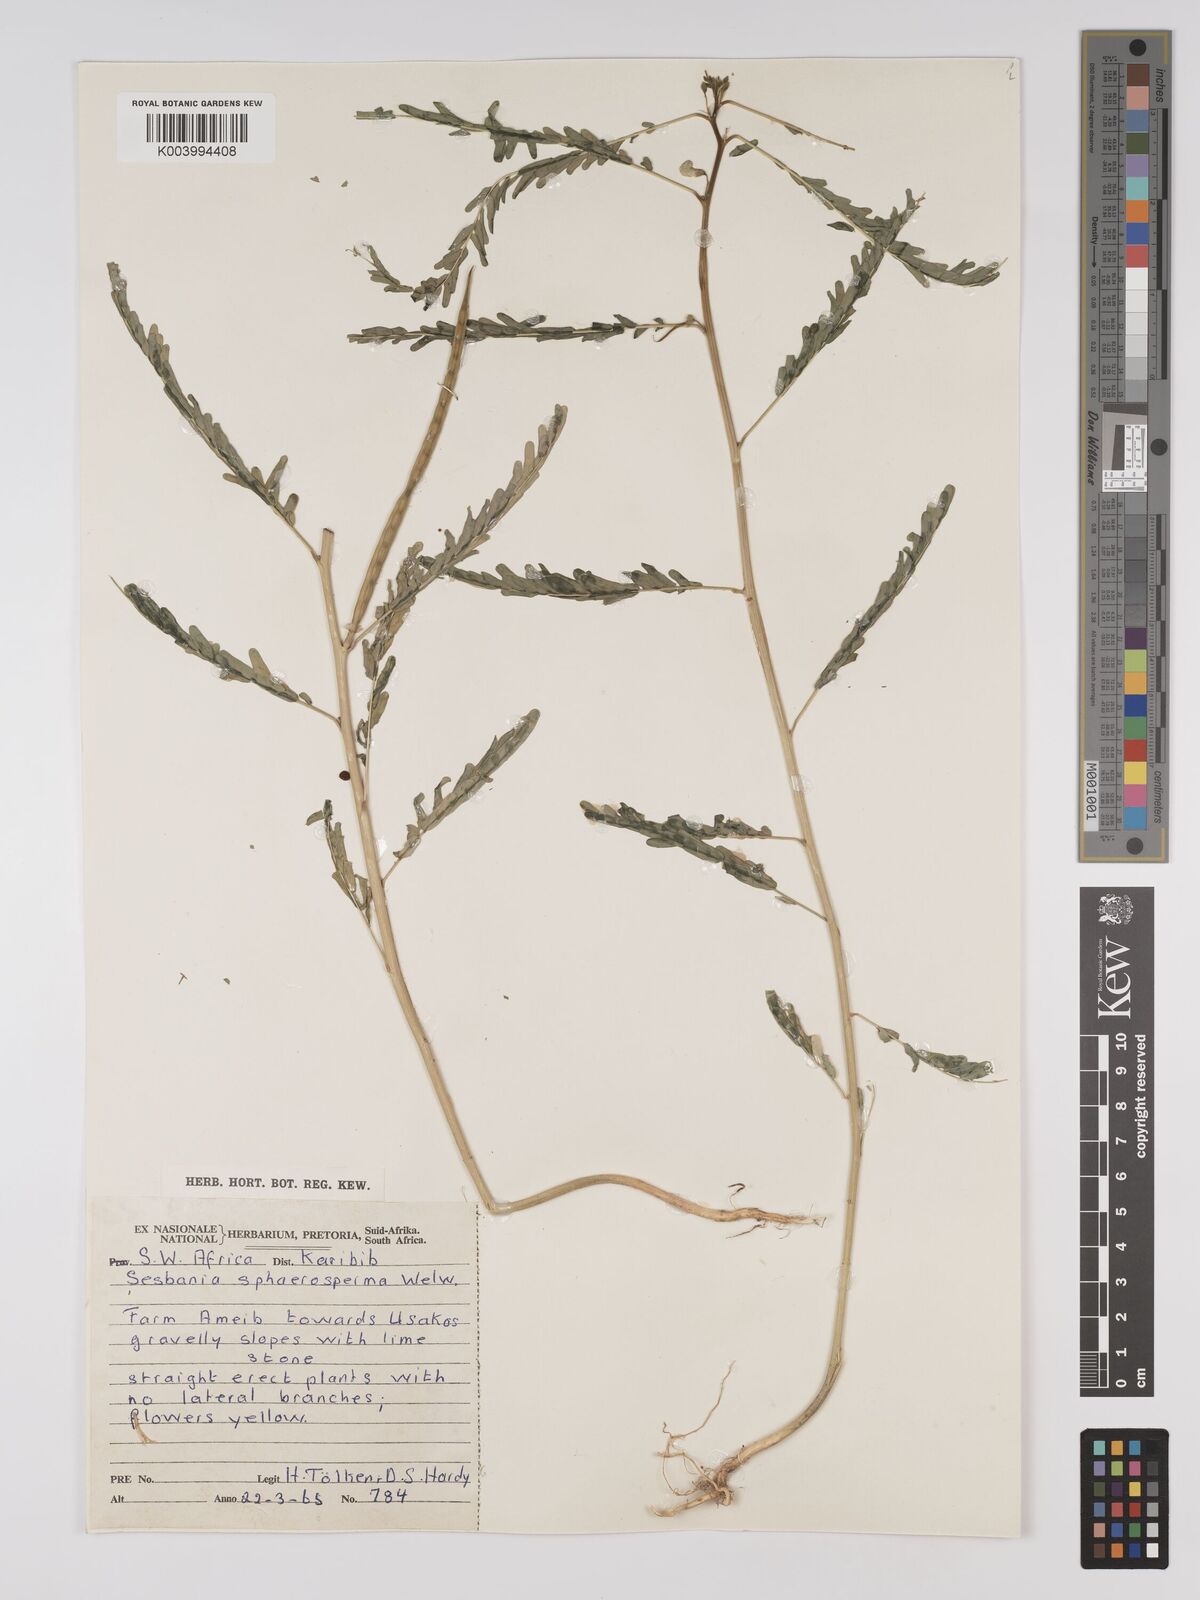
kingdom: Plantae
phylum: Tracheophyta
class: Magnoliopsida
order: Fabales
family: Fabaceae
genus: Sesbania
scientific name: Sesbania sphaerocarpa
